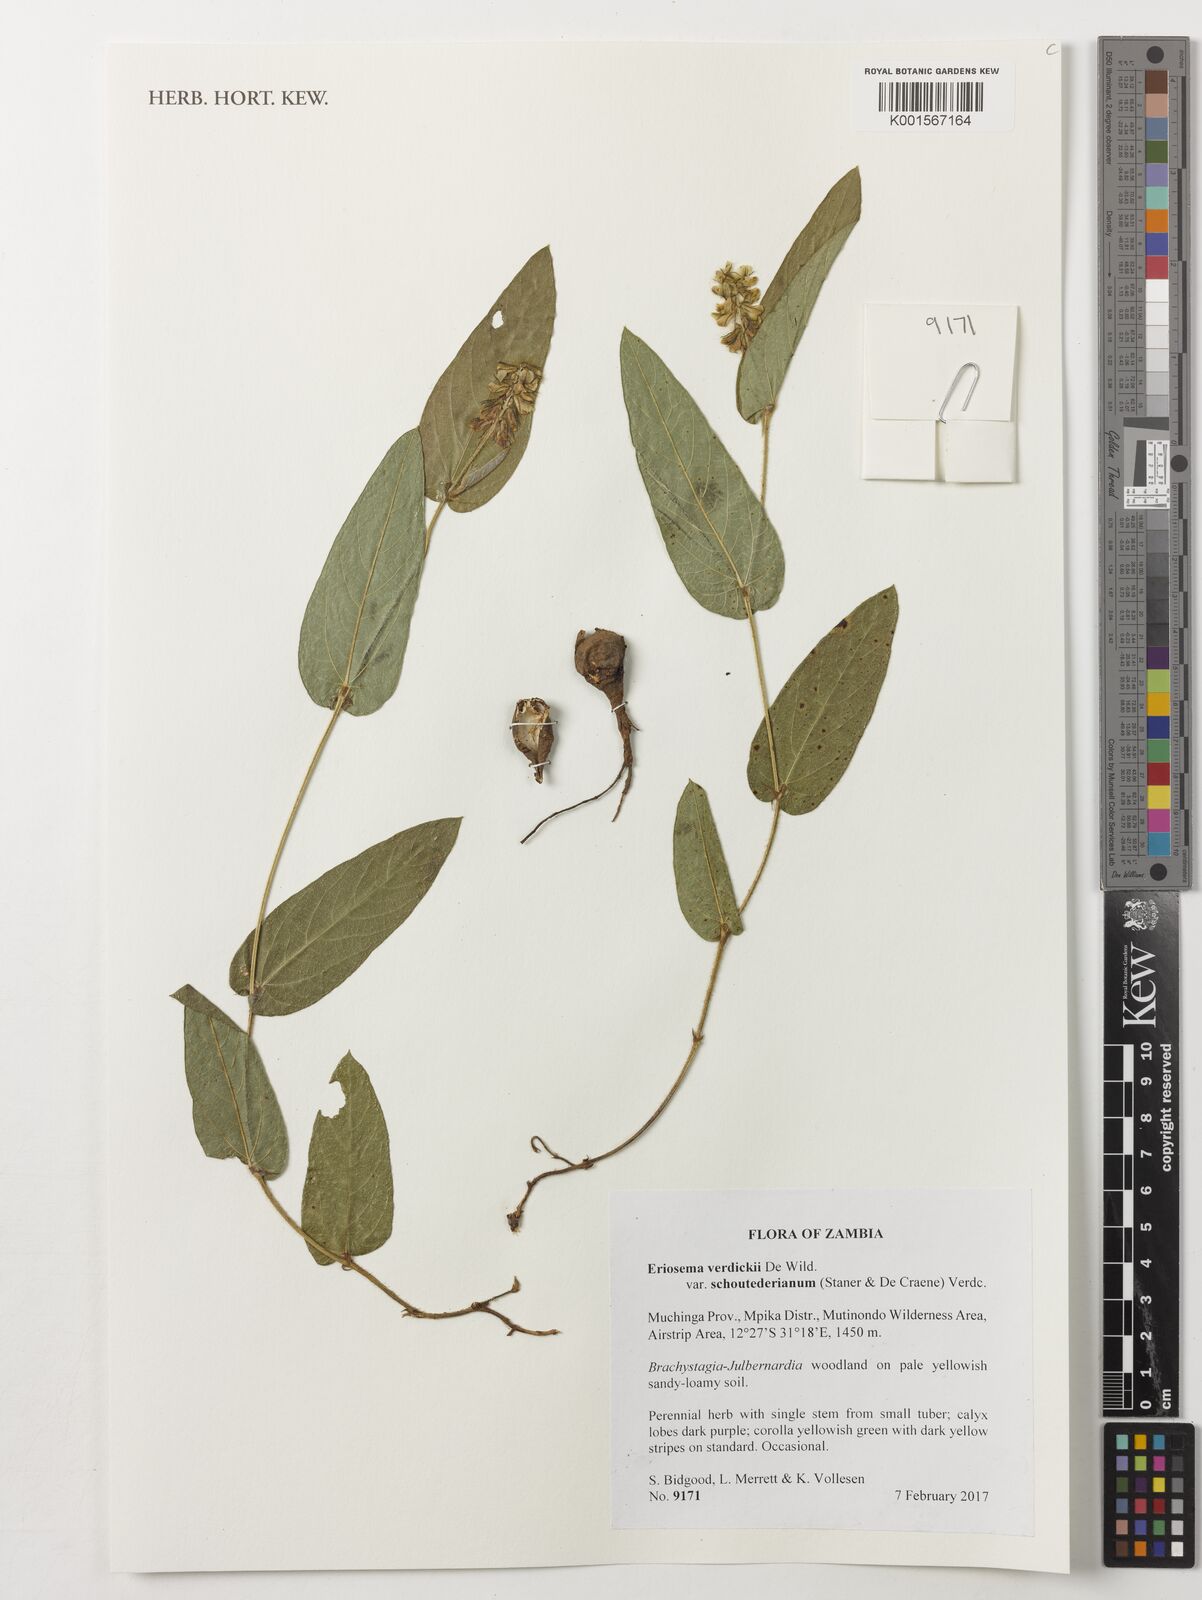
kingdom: Plantae
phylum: Tracheophyta
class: Magnoliopsida
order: Fabales
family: Fabaceae
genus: Eriosema
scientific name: Eriosema verdickii
